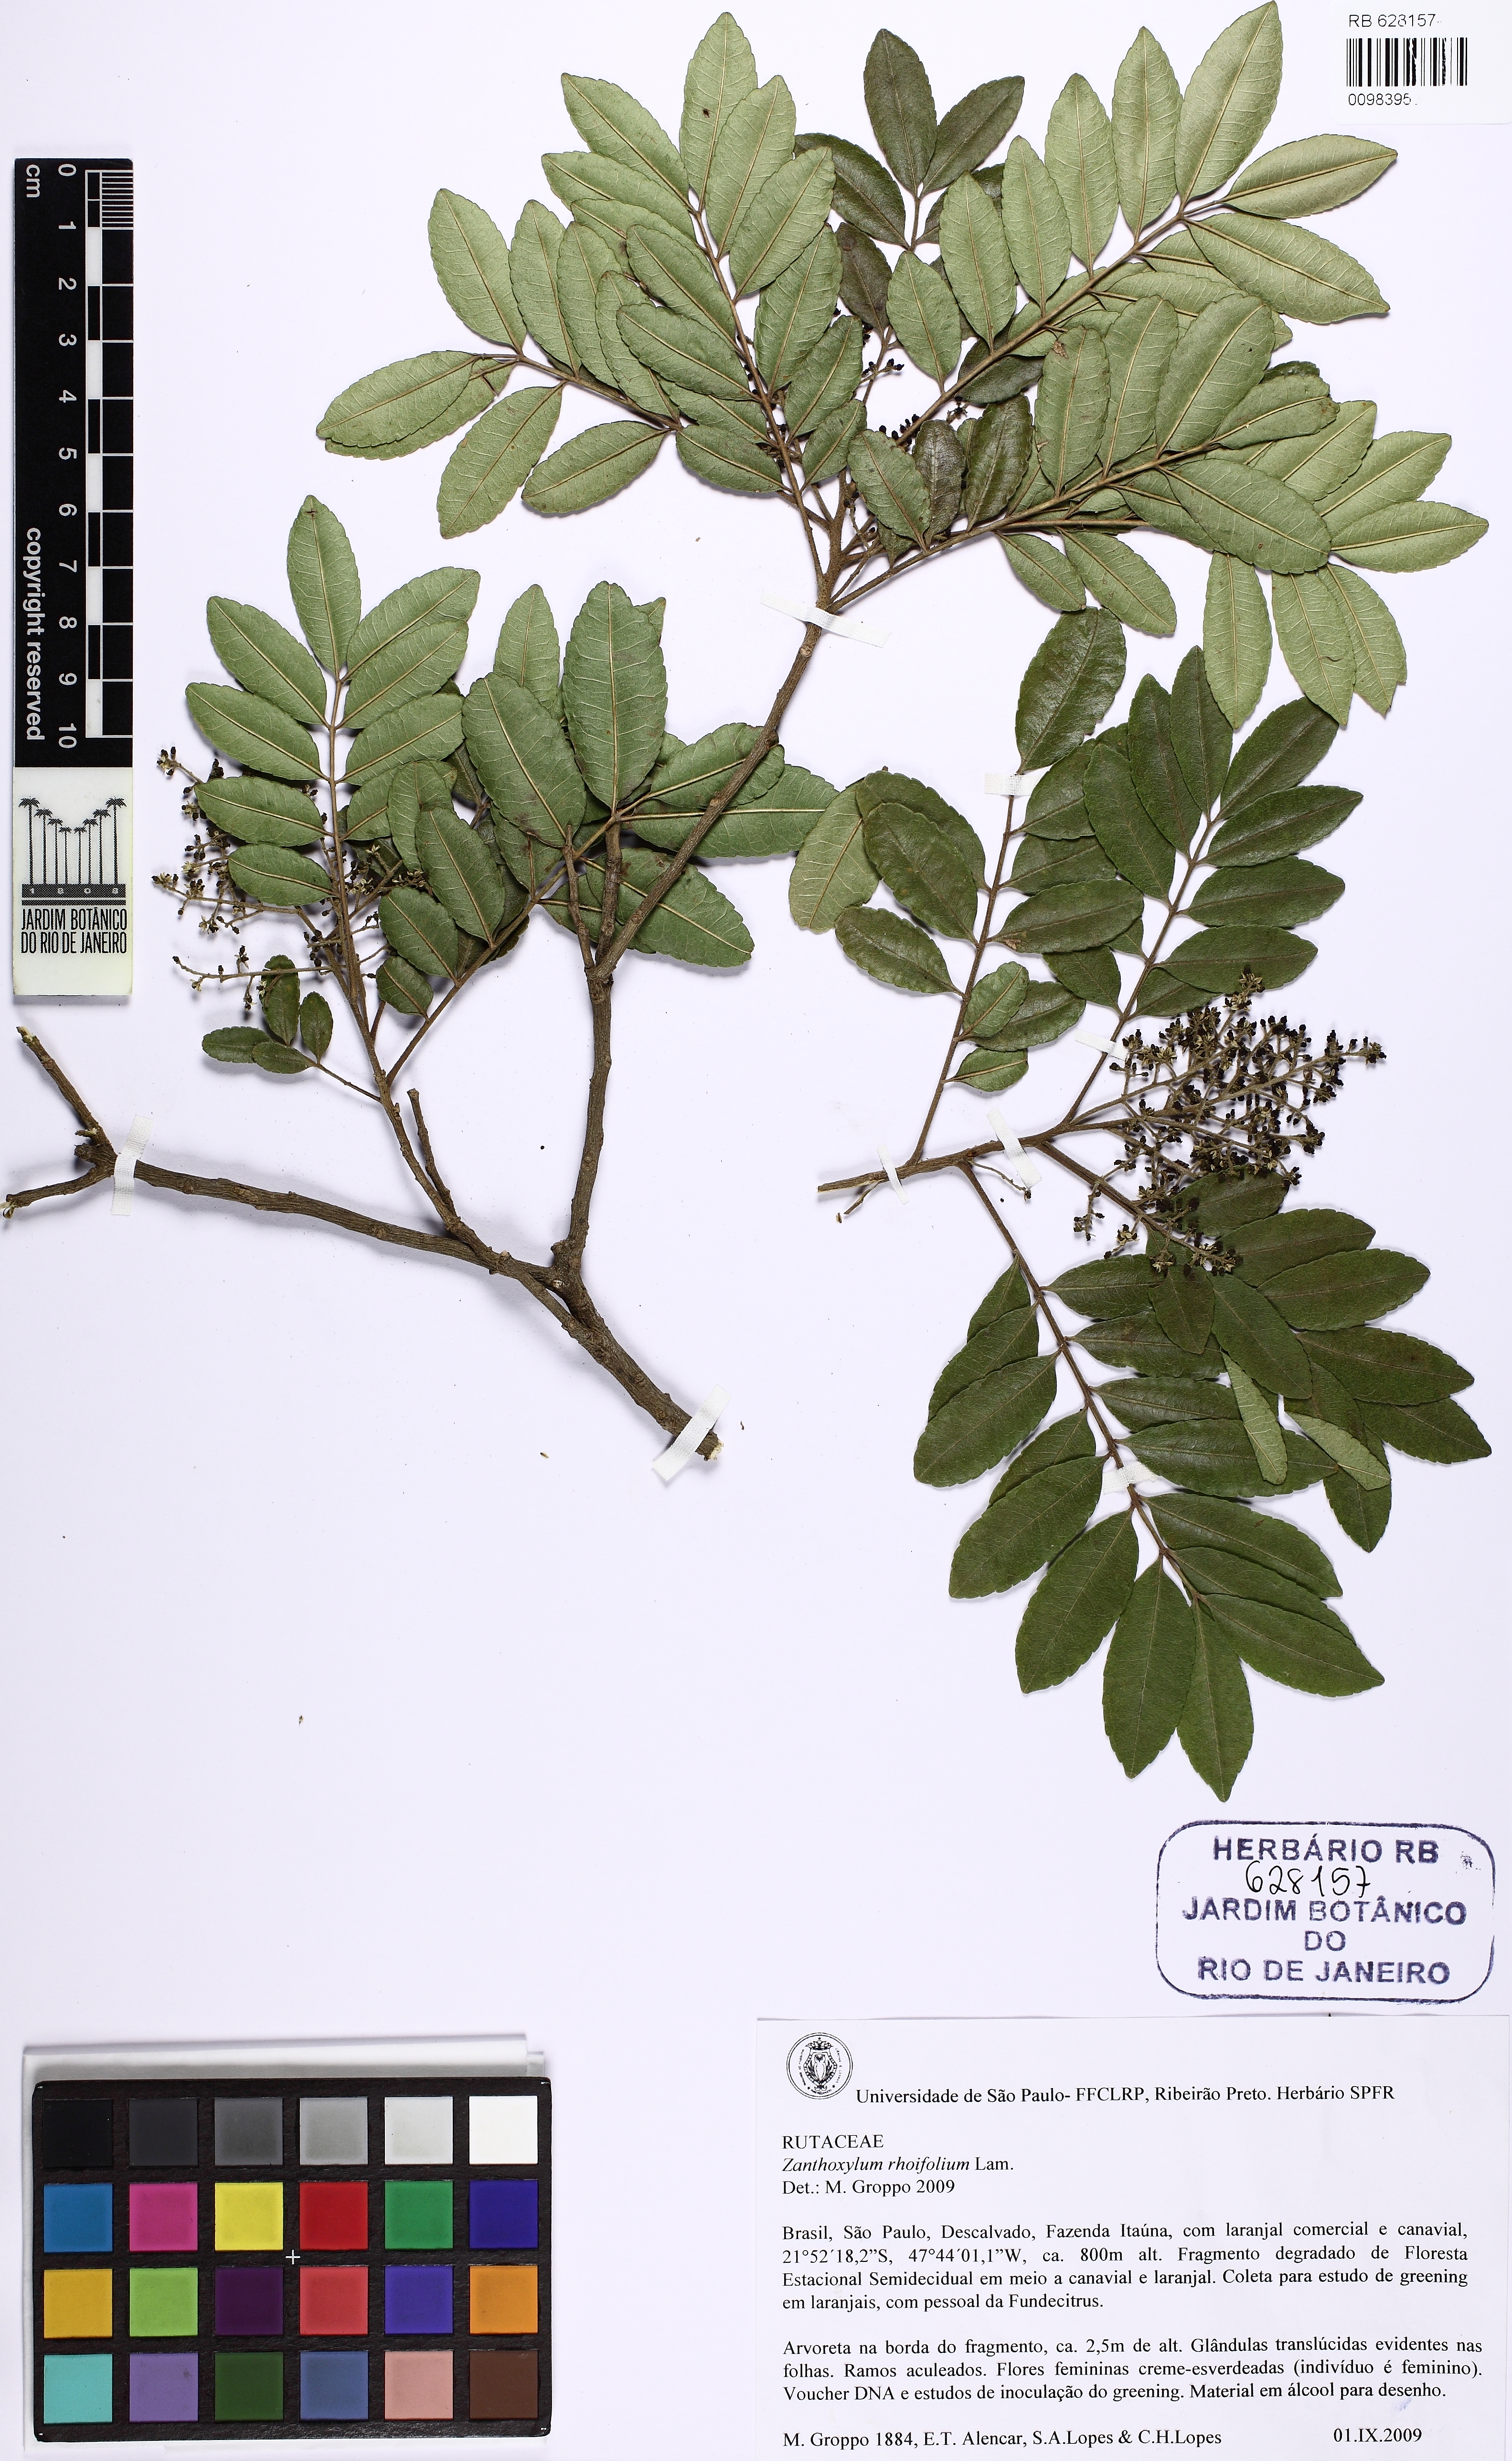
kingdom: Plantae
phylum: Tracheophyta
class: Magnoliopsida
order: Sapindales
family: Rutaceae
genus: Zanthoxylum
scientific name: Zanthoxylum rhoifolium
